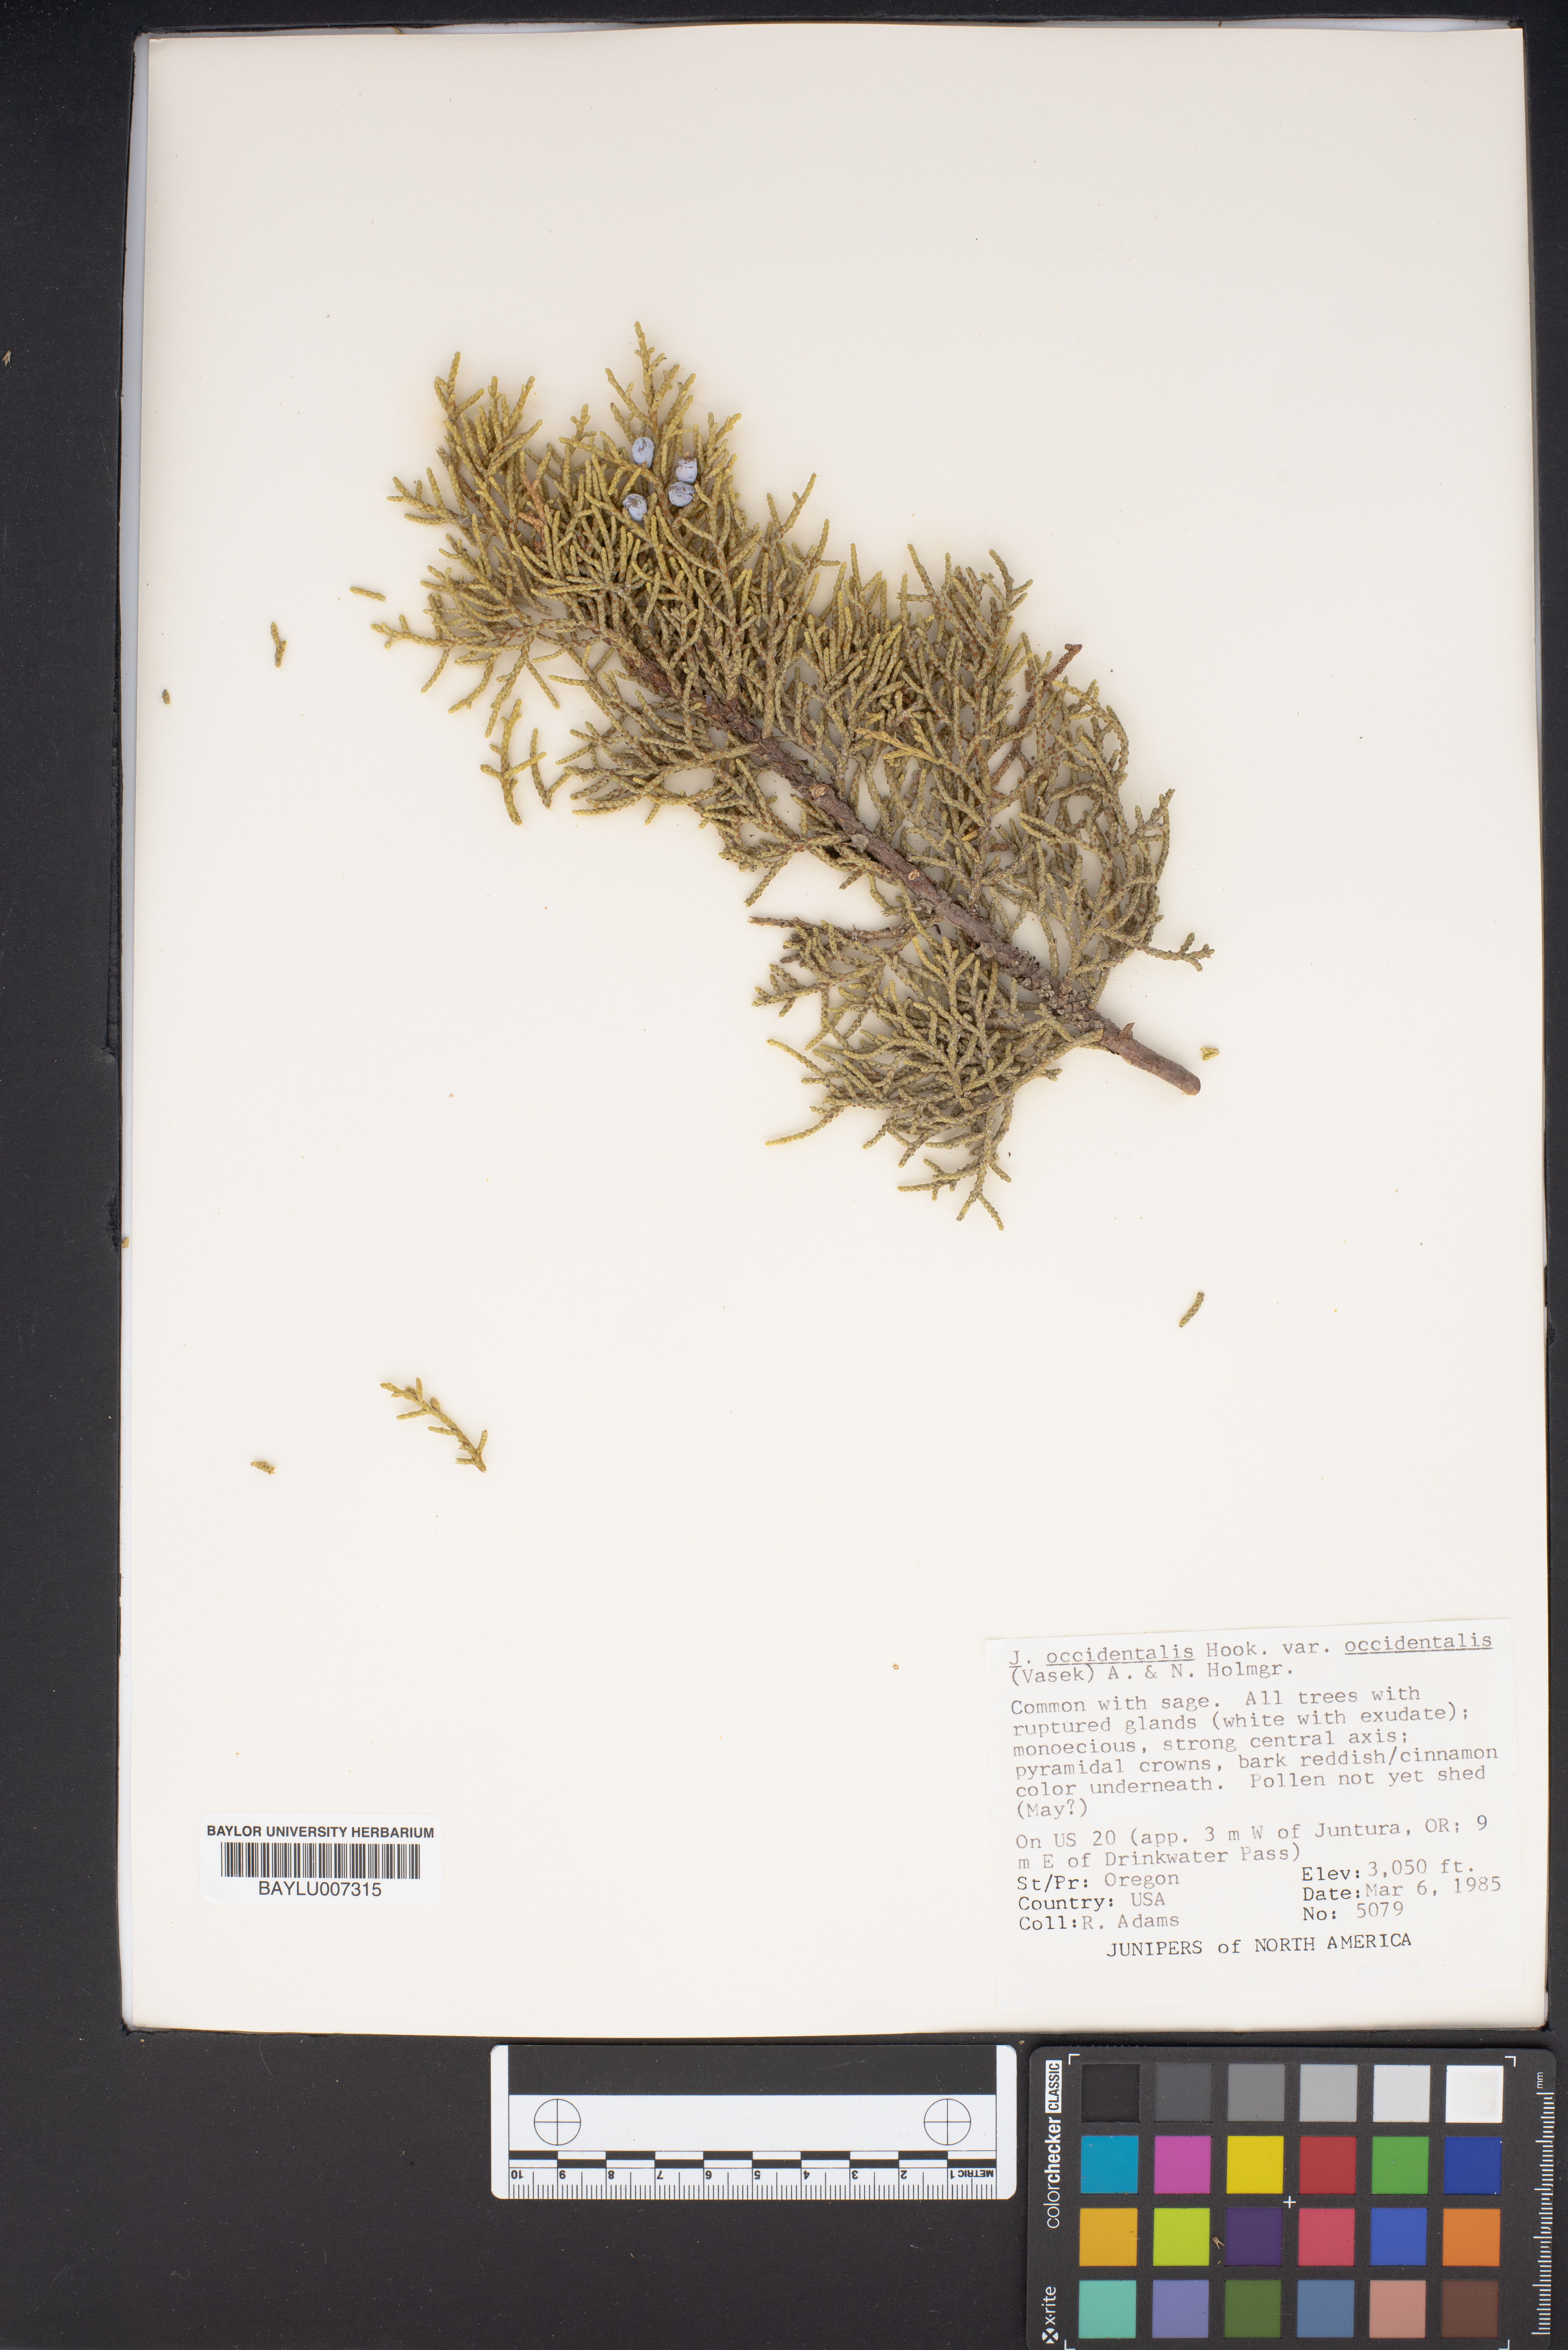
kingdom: Plantae
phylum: Tracheophyta
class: Pinopsida
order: Pinales
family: Cupressaceae
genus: Juniperus
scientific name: Juniperus occidentalis
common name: Western juniper
